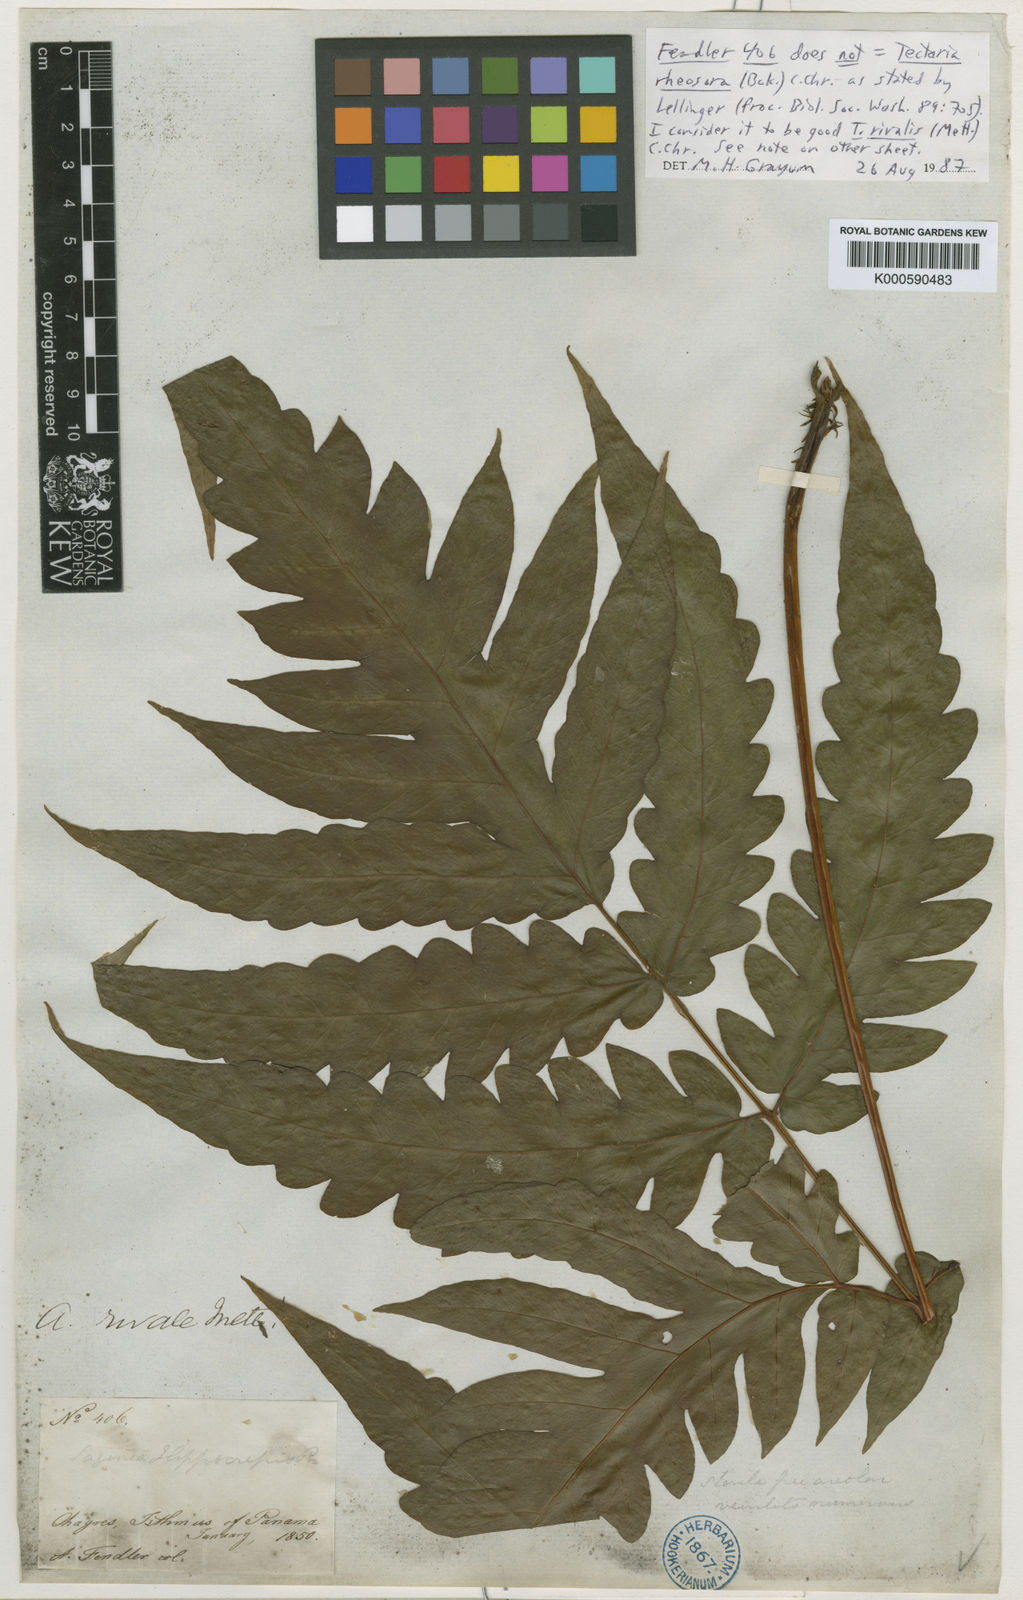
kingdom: Plantae
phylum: Tracheophyta
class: Polypodiopsida
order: Polypodiales
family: Tectariaceae
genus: Tectaria
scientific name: Tectaria Aspidium spec
